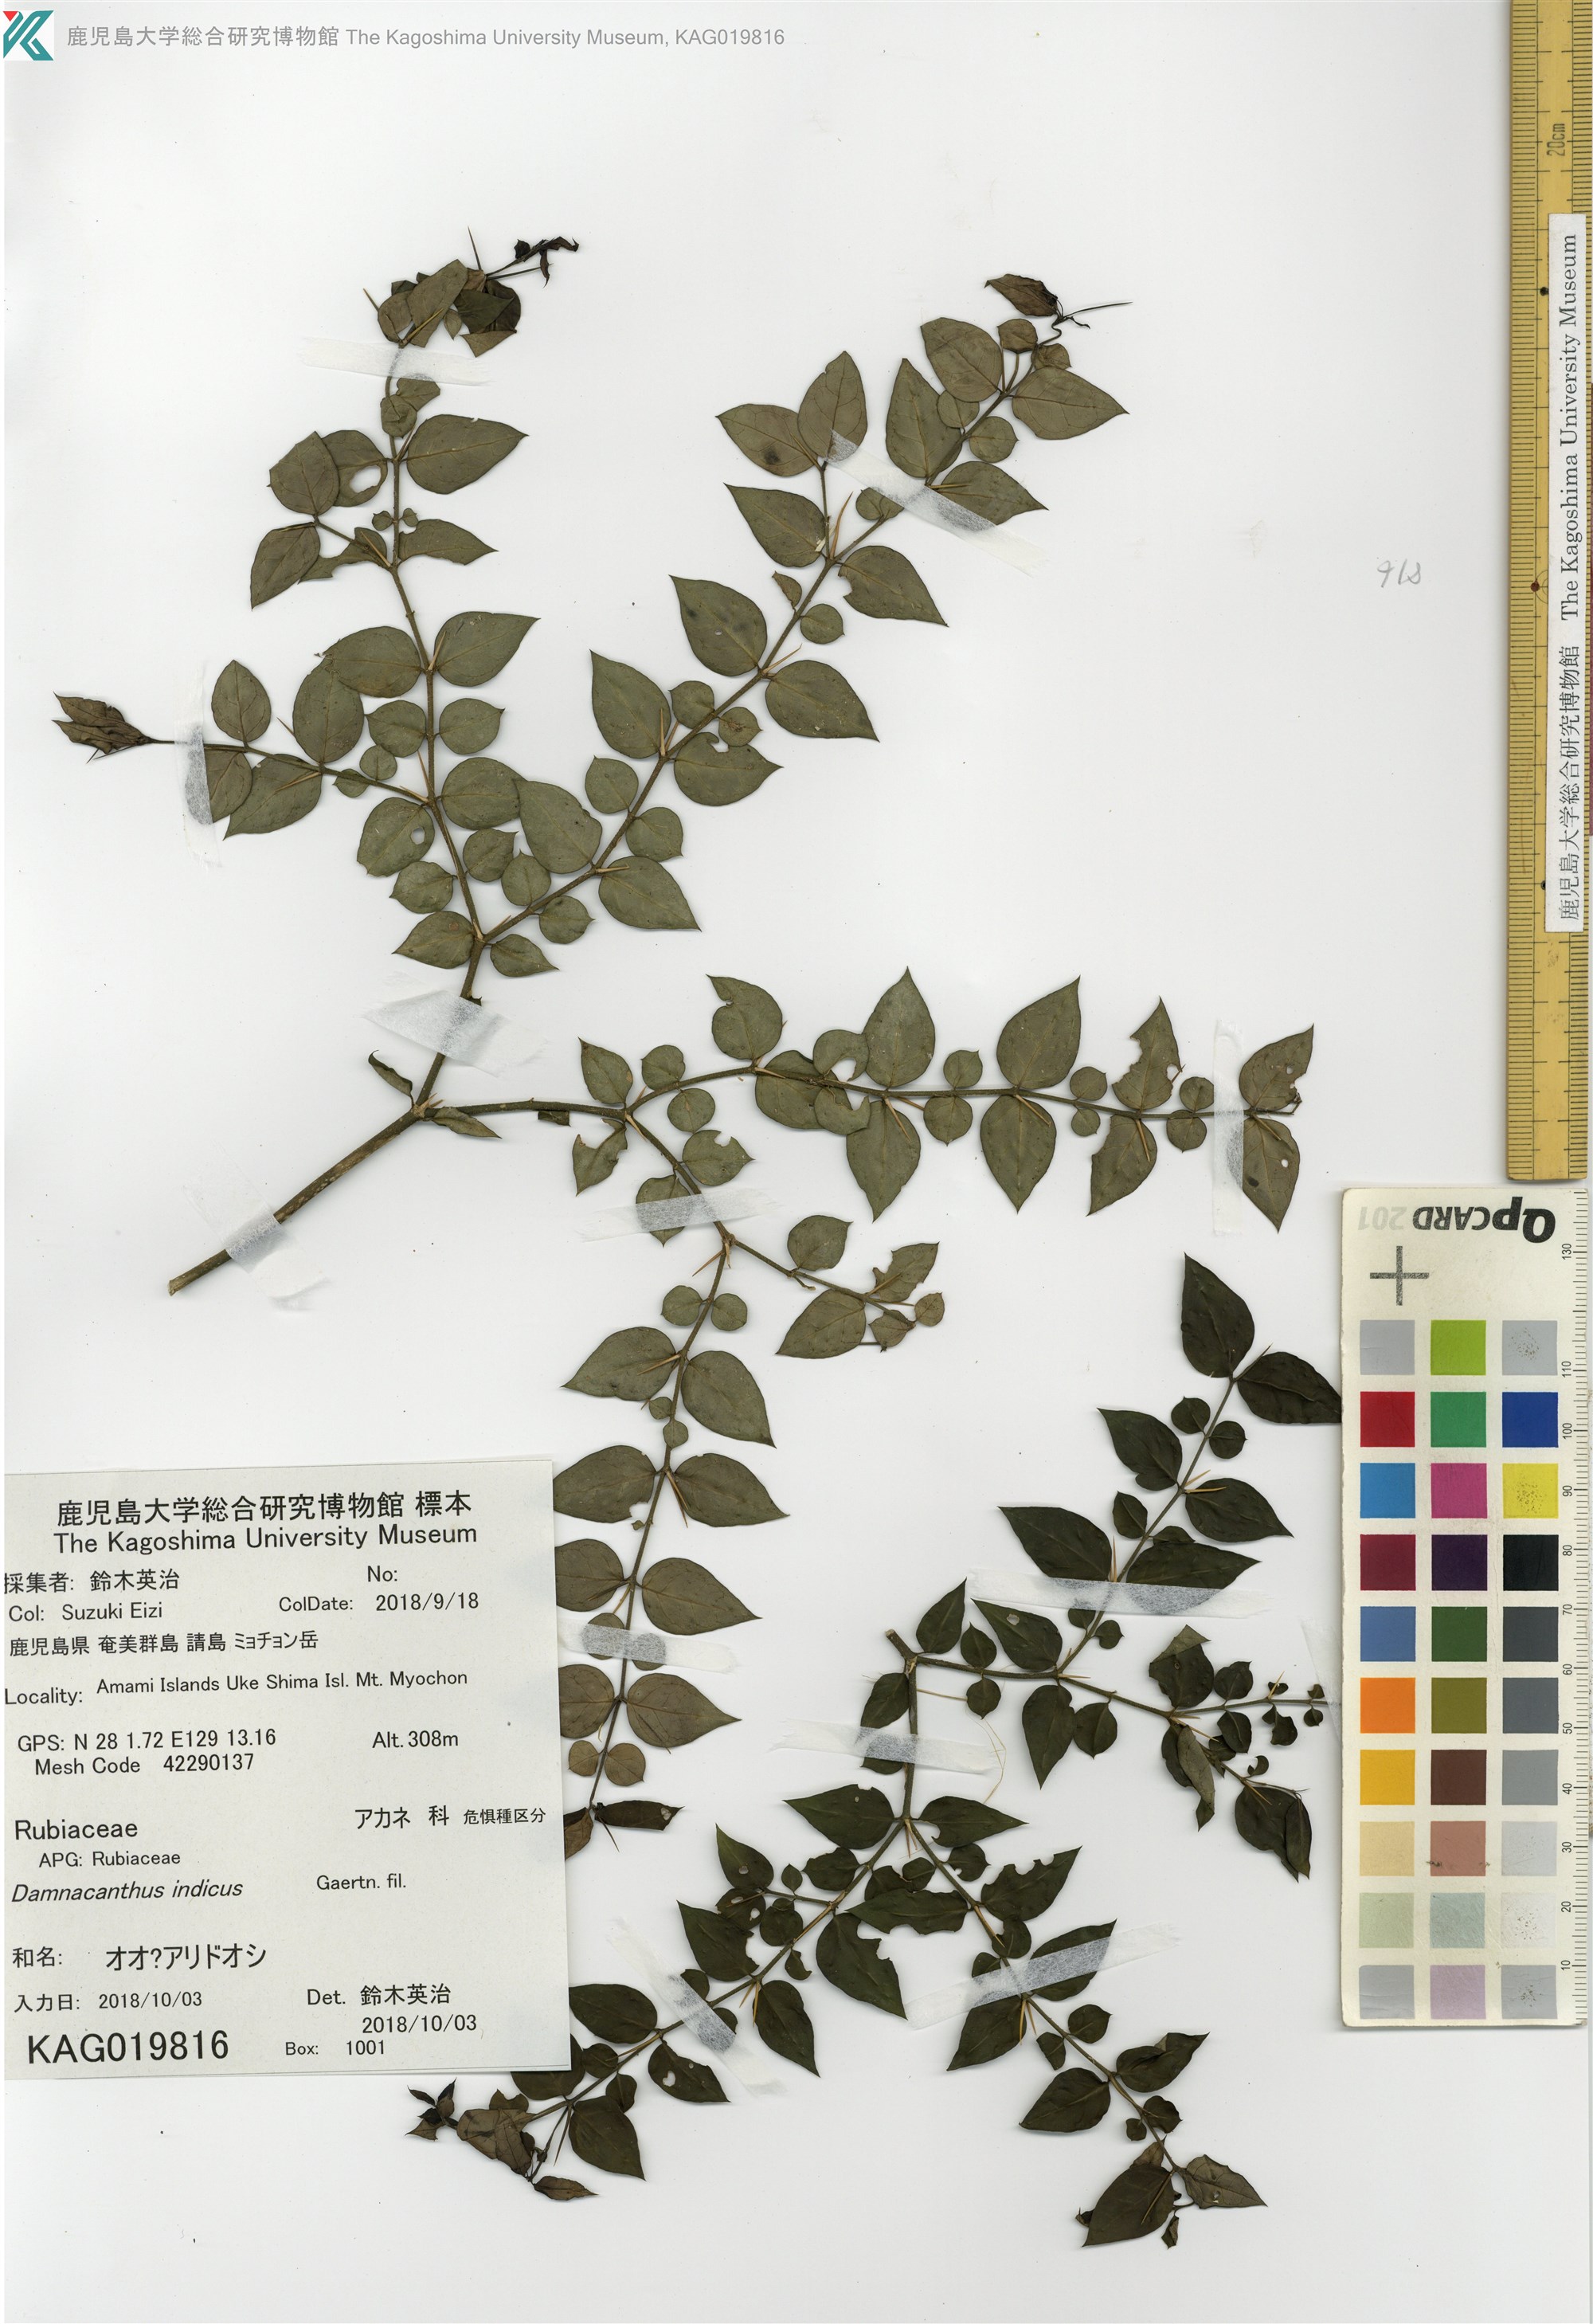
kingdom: Plantae
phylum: Tracheophyta
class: Magnoliopsida
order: Gentianales
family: Rubiaceae
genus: Damnacanthus
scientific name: Damnacanthus indicus
